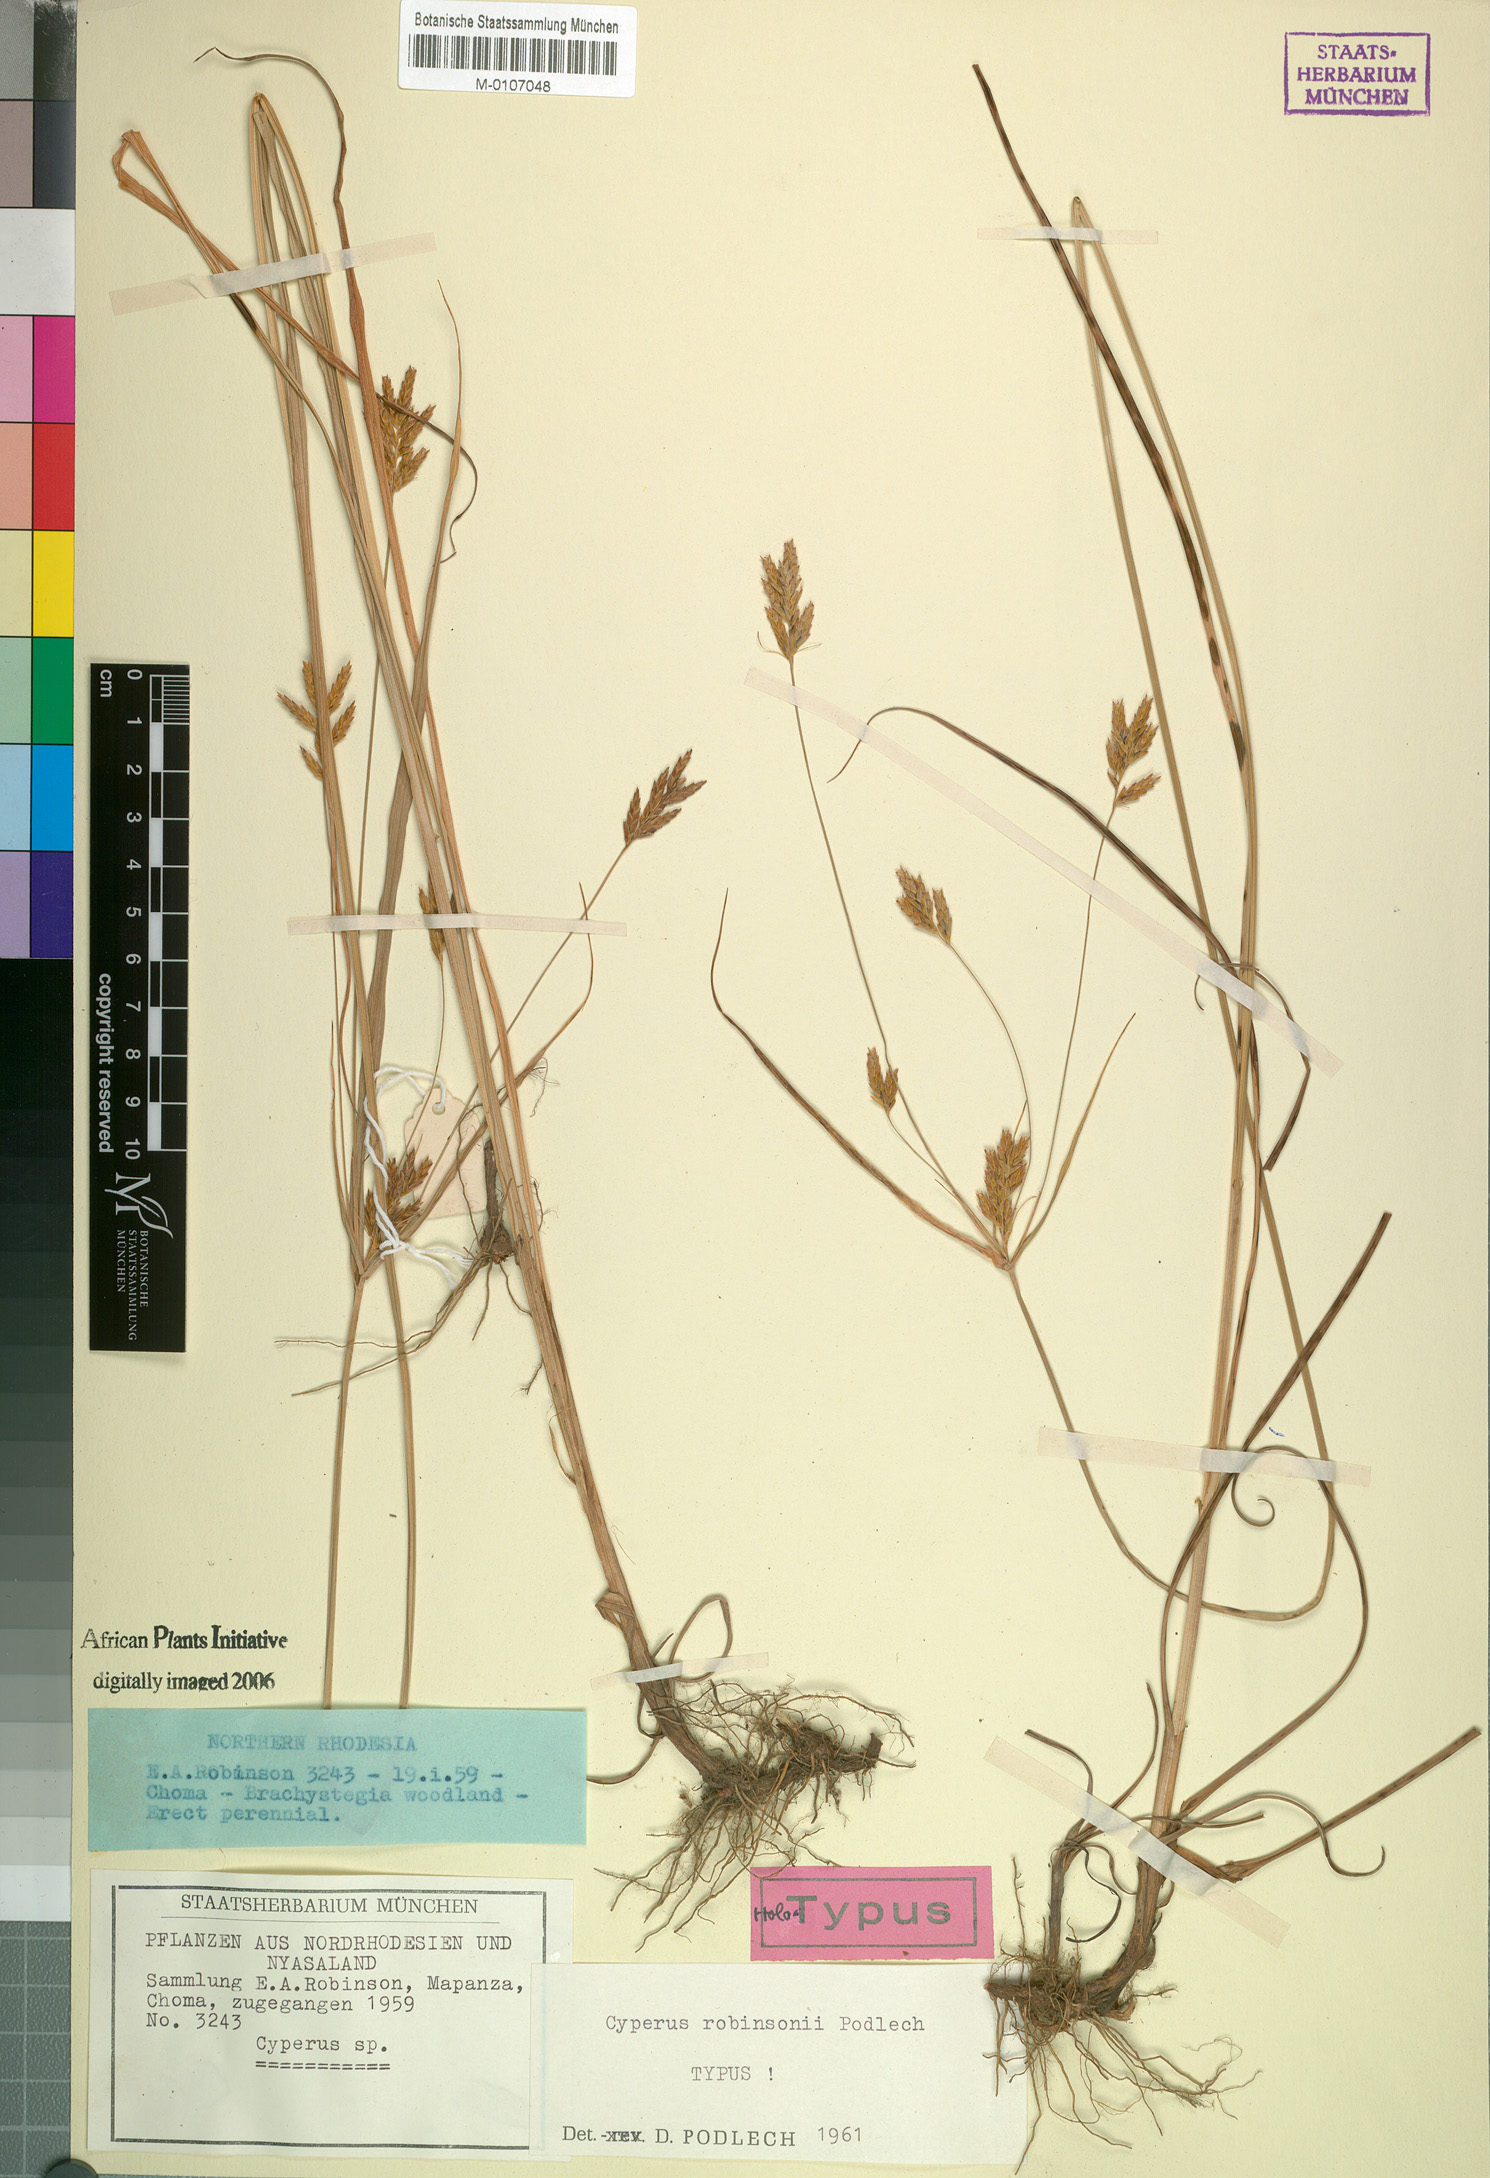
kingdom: Plantae
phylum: Tracheophyta
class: Liliopsida
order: Poales
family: Cyperaceae
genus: Cyperus
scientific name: Cyperus tenuiculmis
